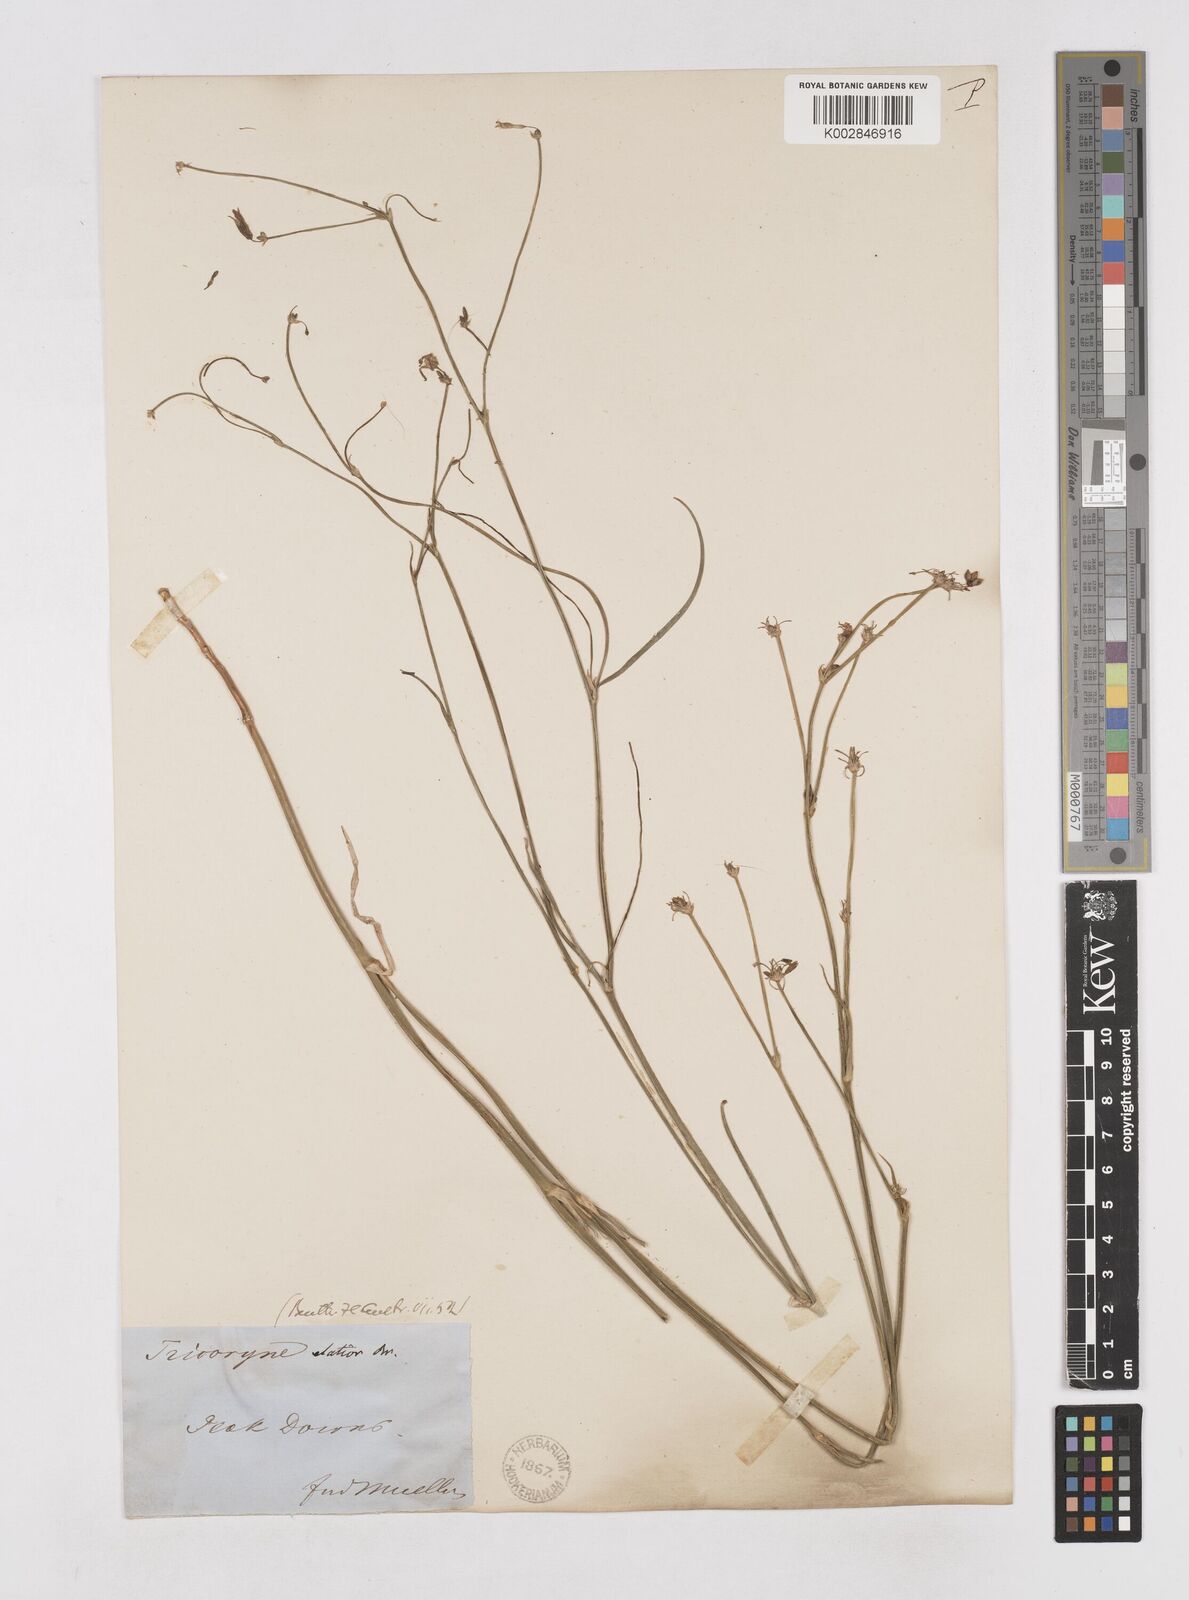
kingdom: Plantae
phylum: Tracheophyta
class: Liliopsida
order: Asparagales
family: Asphodelaceae
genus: Tricoryne
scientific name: Tricoryne elatior
